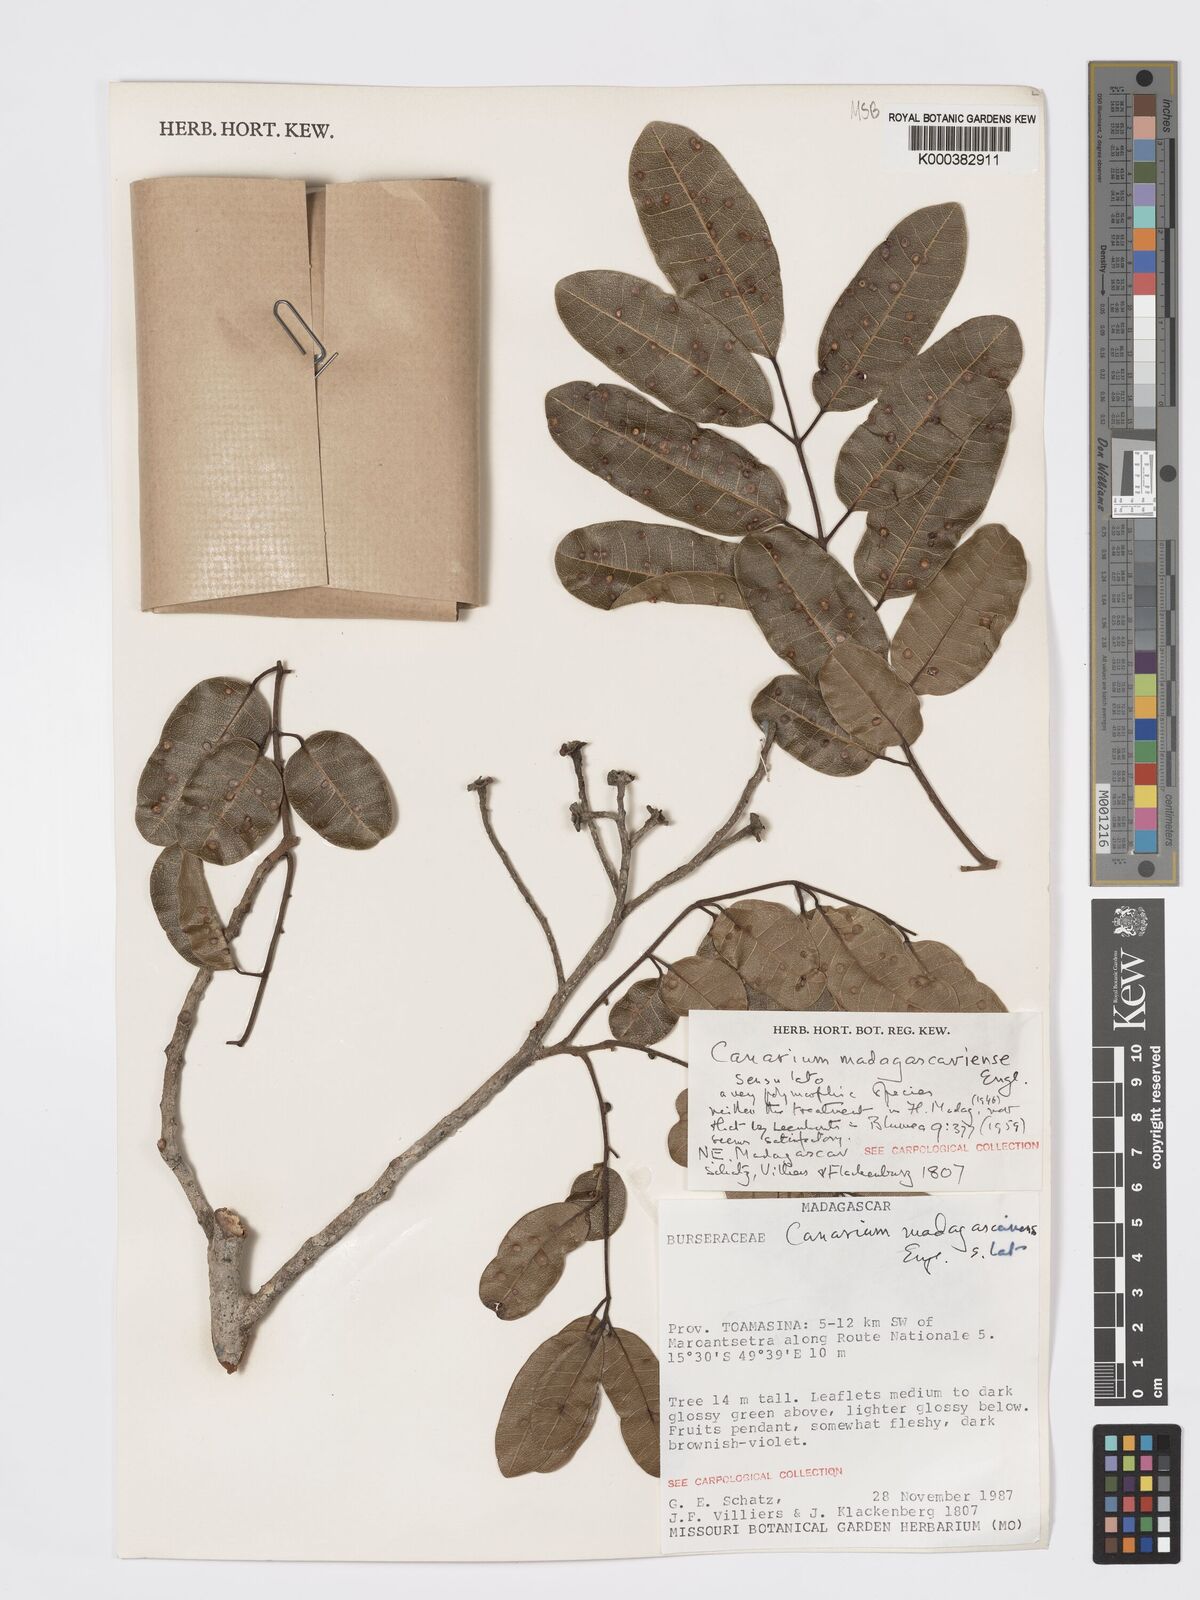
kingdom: Plantae
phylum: Tracheophyta
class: Magnoliopsida
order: Sapindales
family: Burseraceae
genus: Canarium
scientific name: Canarium madagascariense
